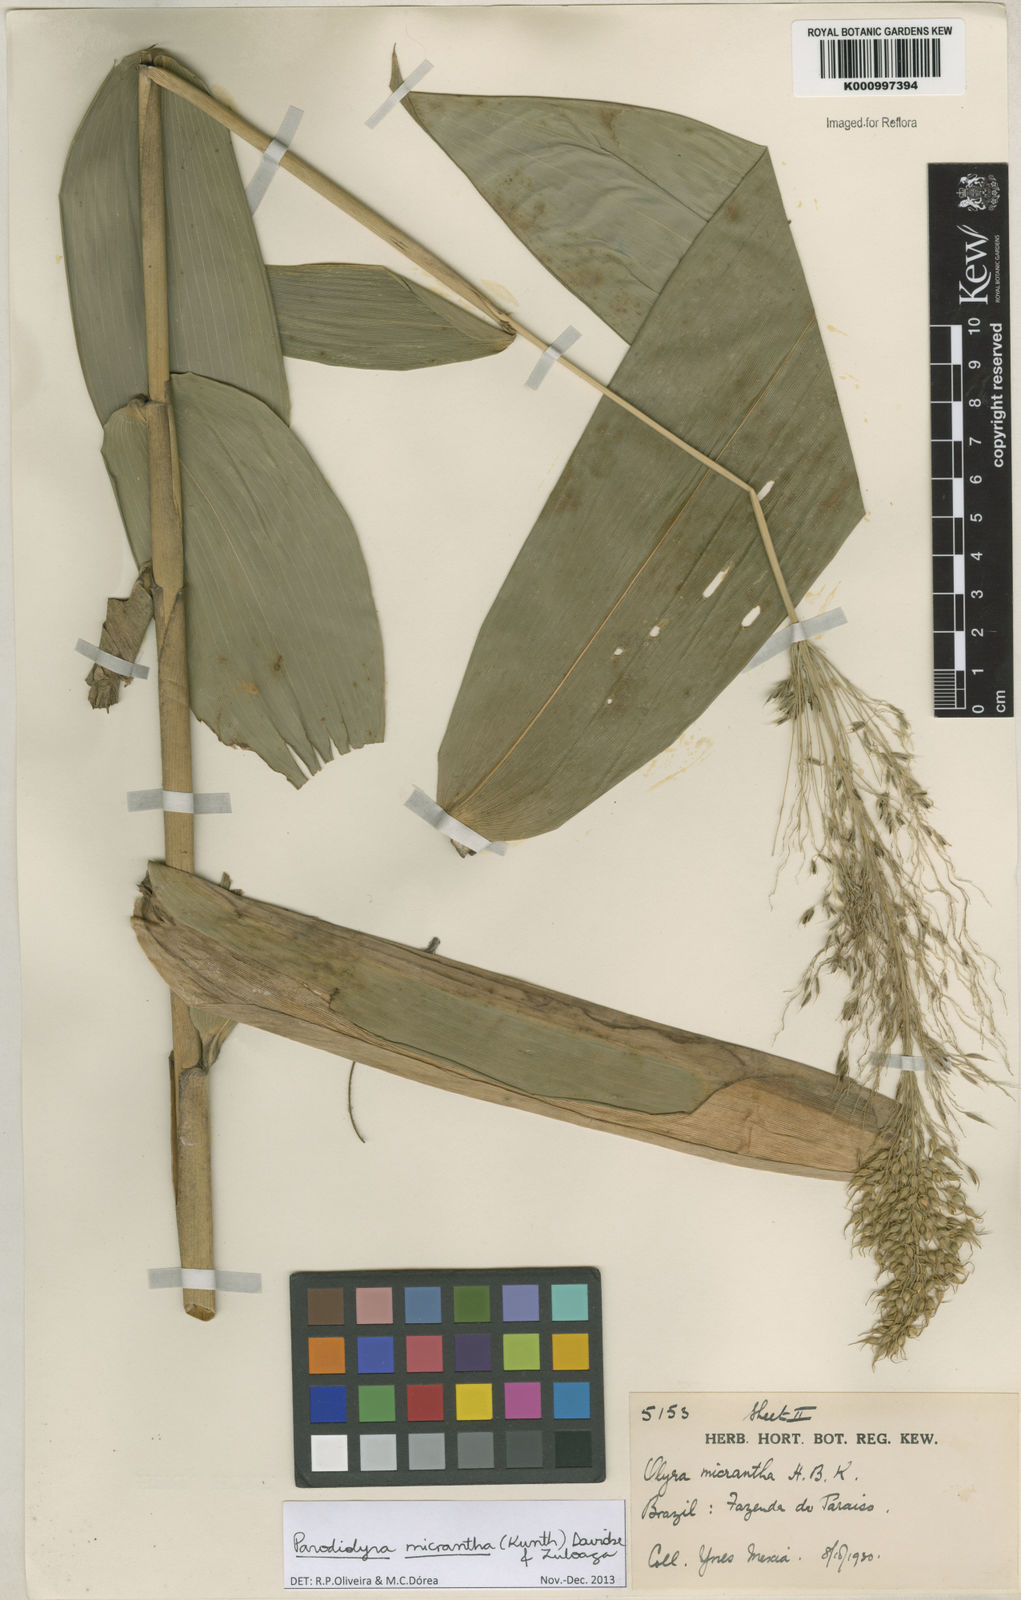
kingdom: Plantae
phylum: Tracheophyta
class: Liliopsida
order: Poales
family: Poaceae
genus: Taquara
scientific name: Taquara micrantha
